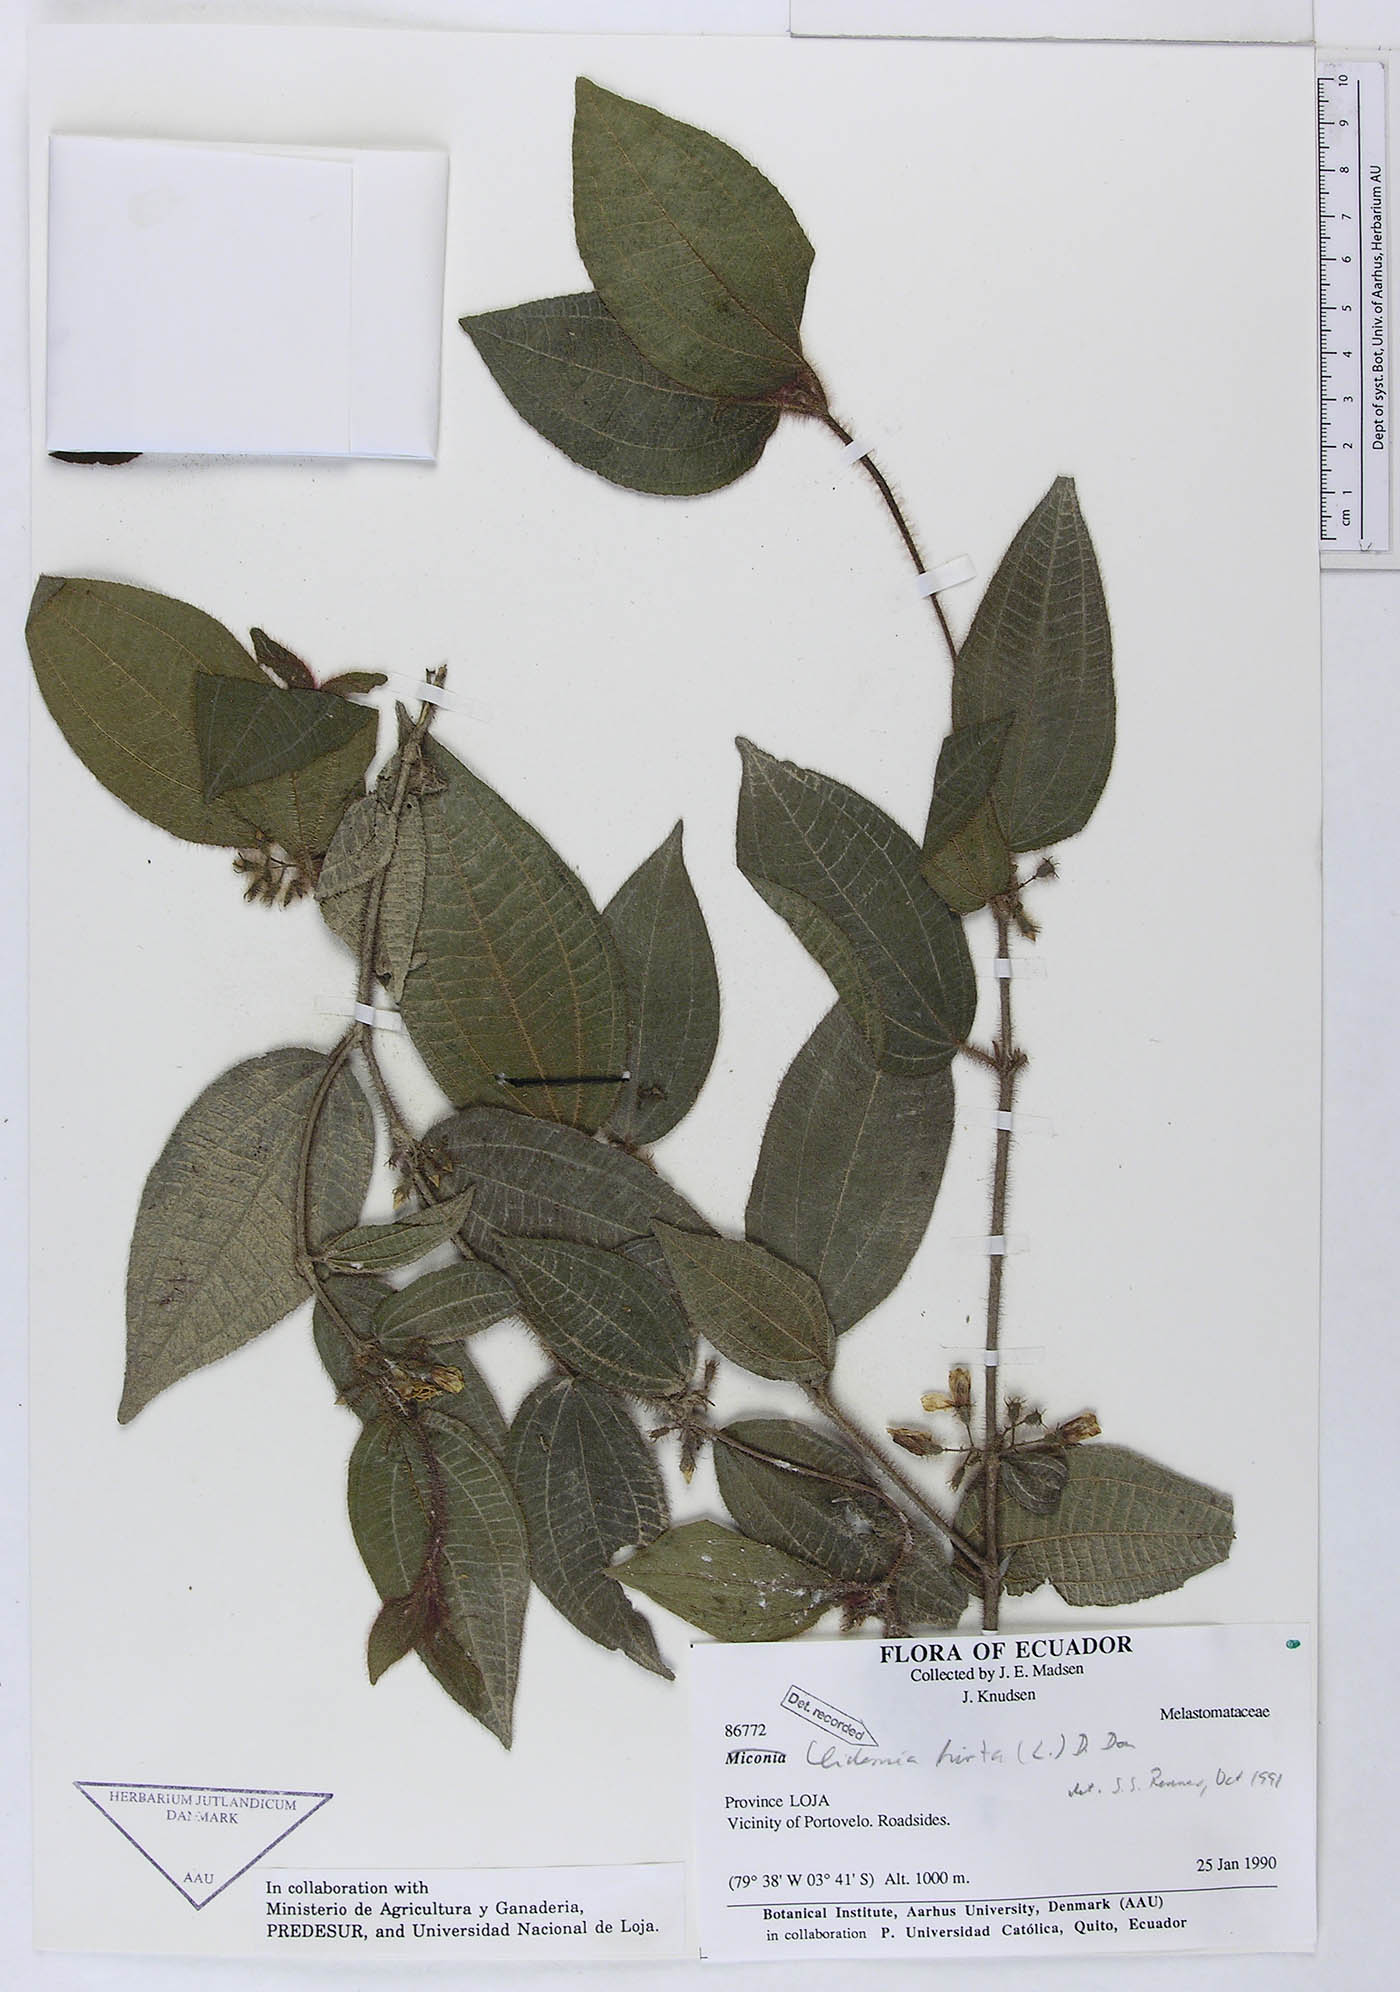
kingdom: Plantae
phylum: Tracheophyta
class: Magnoliopsida
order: Myrtales
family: Melastomataceae
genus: Miconia
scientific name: Miconia crenata
